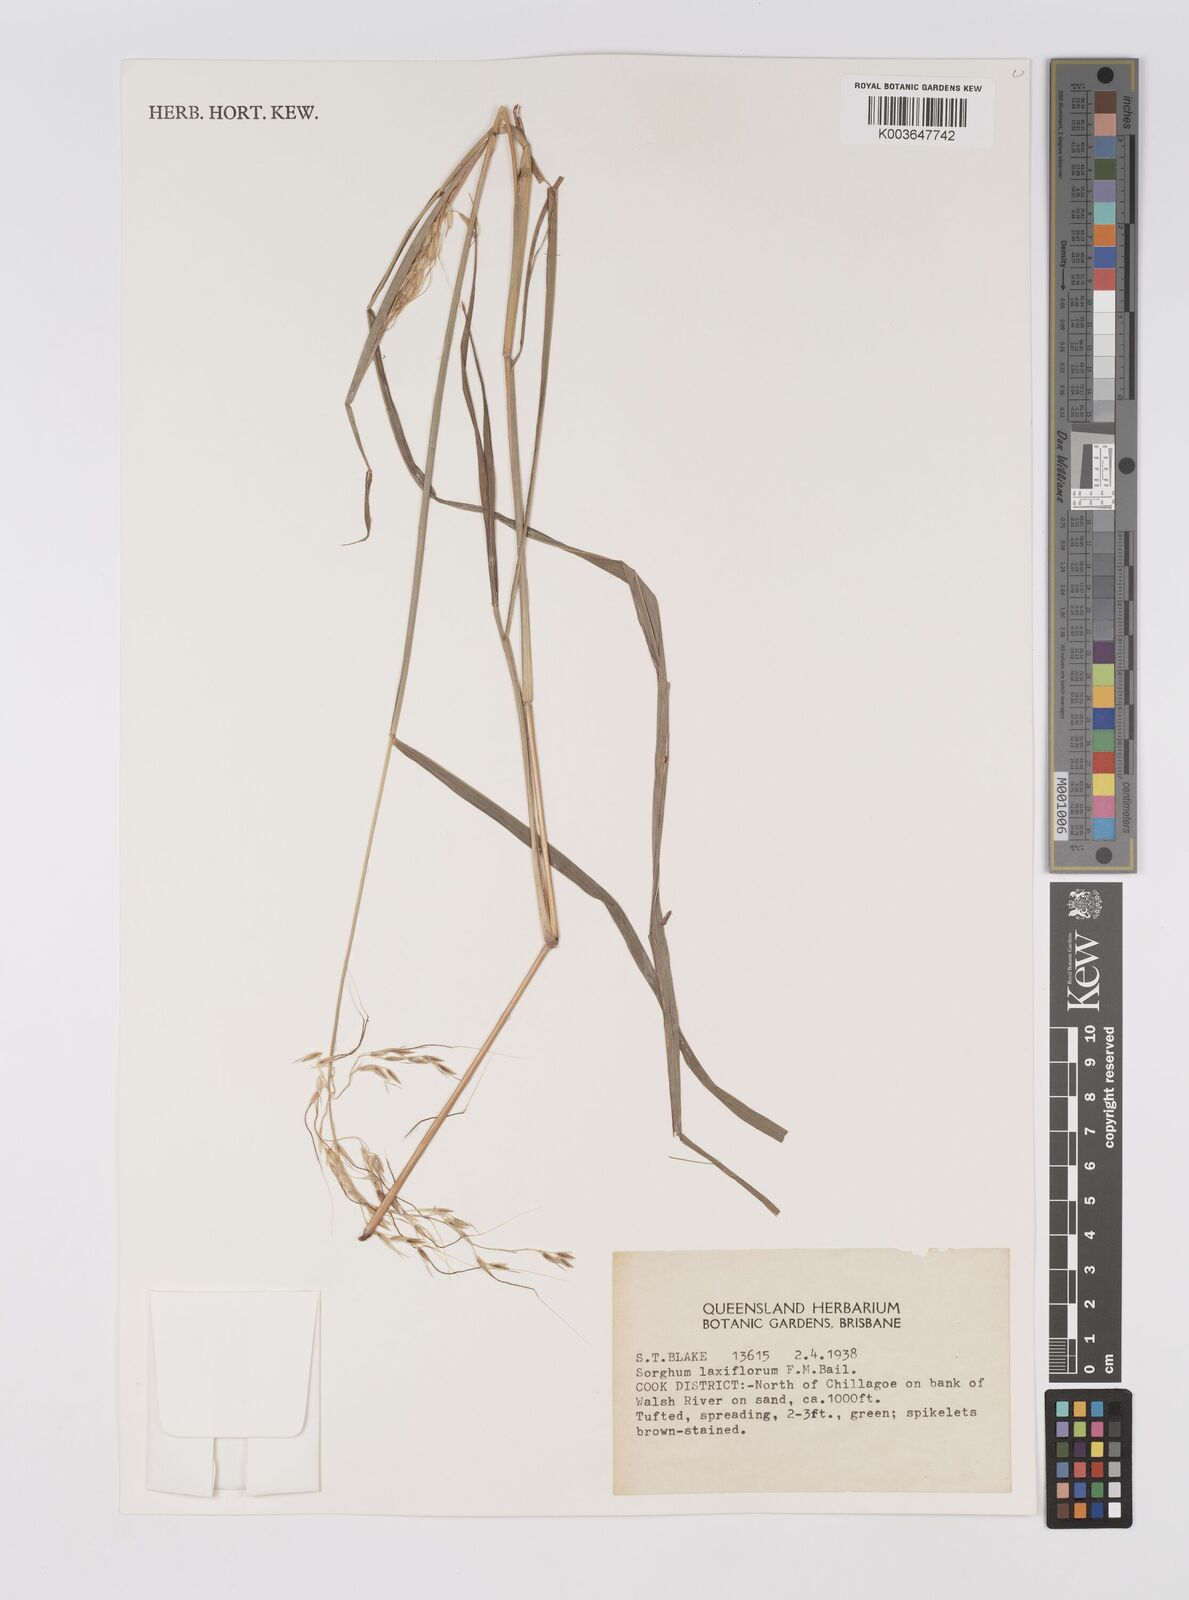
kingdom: Plantae
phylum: Tracheophyta
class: Liliopsida
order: Poales
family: Poaceae
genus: Sorghum
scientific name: Sorghum laxiflorum
